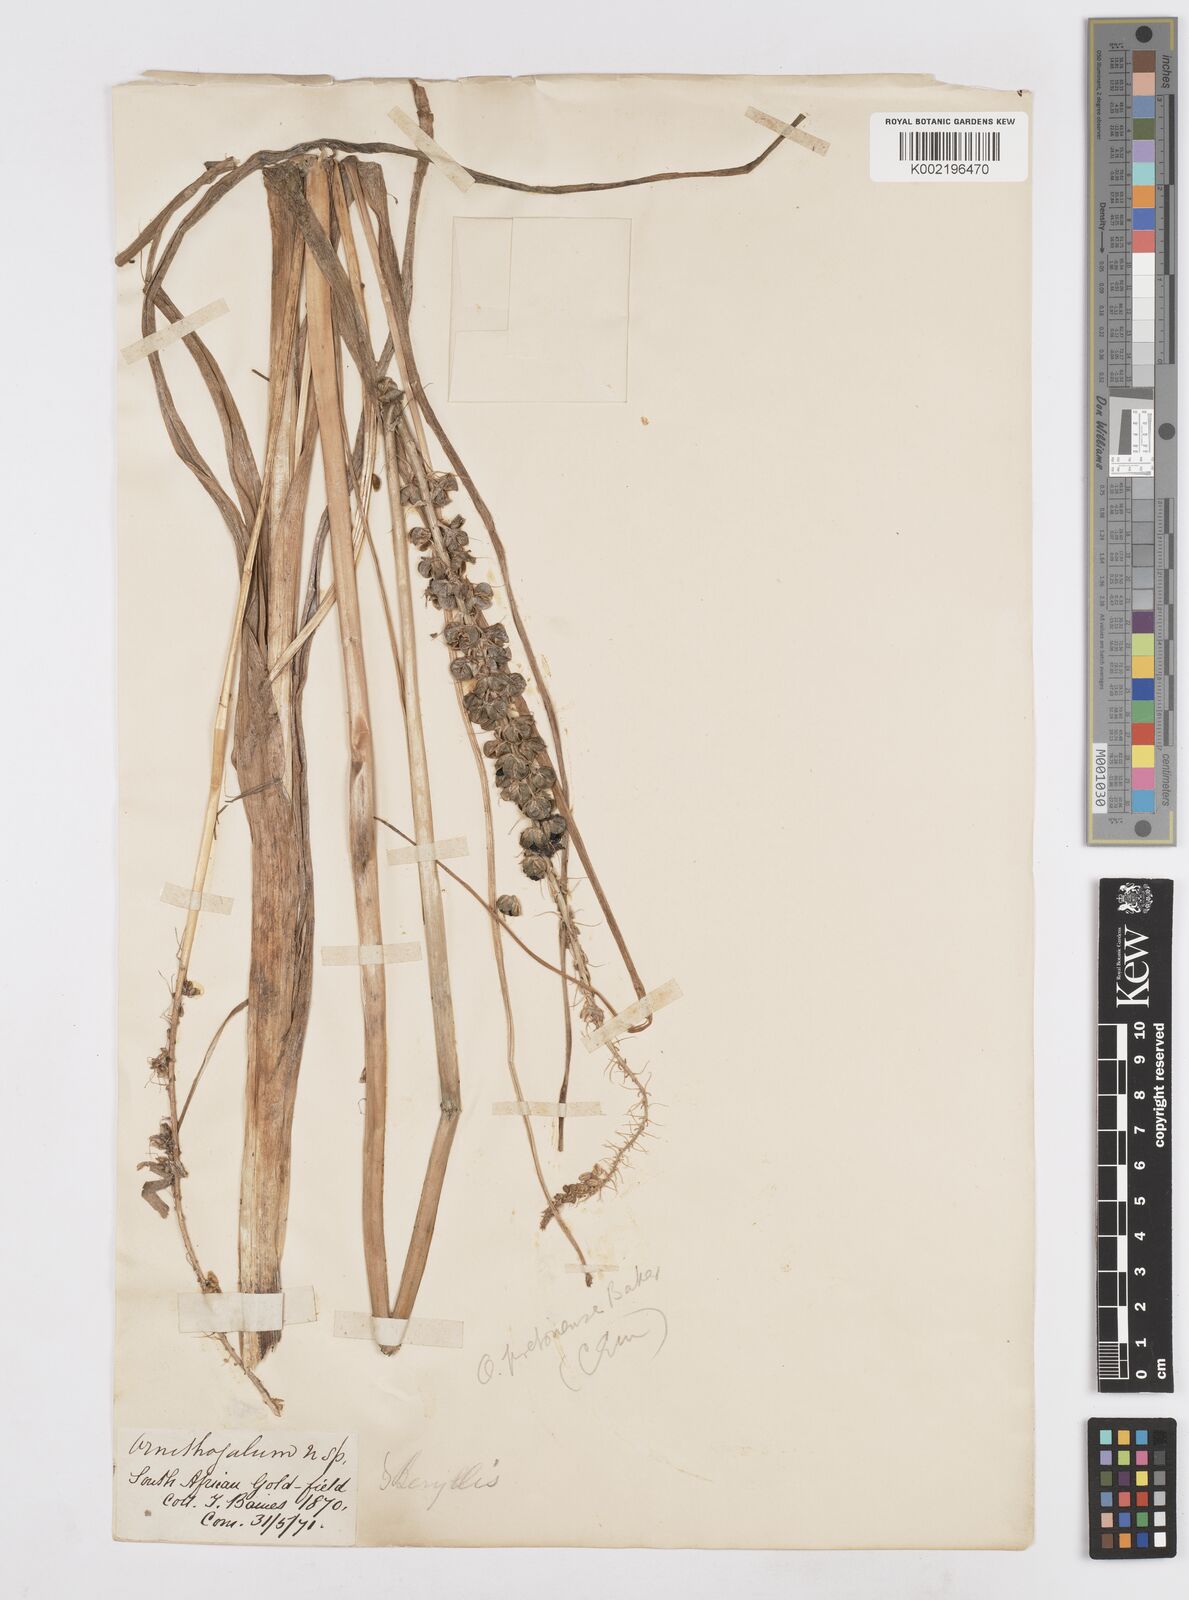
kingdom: Plantae
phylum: Tracheophyta
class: Liliopsida
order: Asparagales
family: Asparagaceae
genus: Albuca
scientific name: Albuca virens
